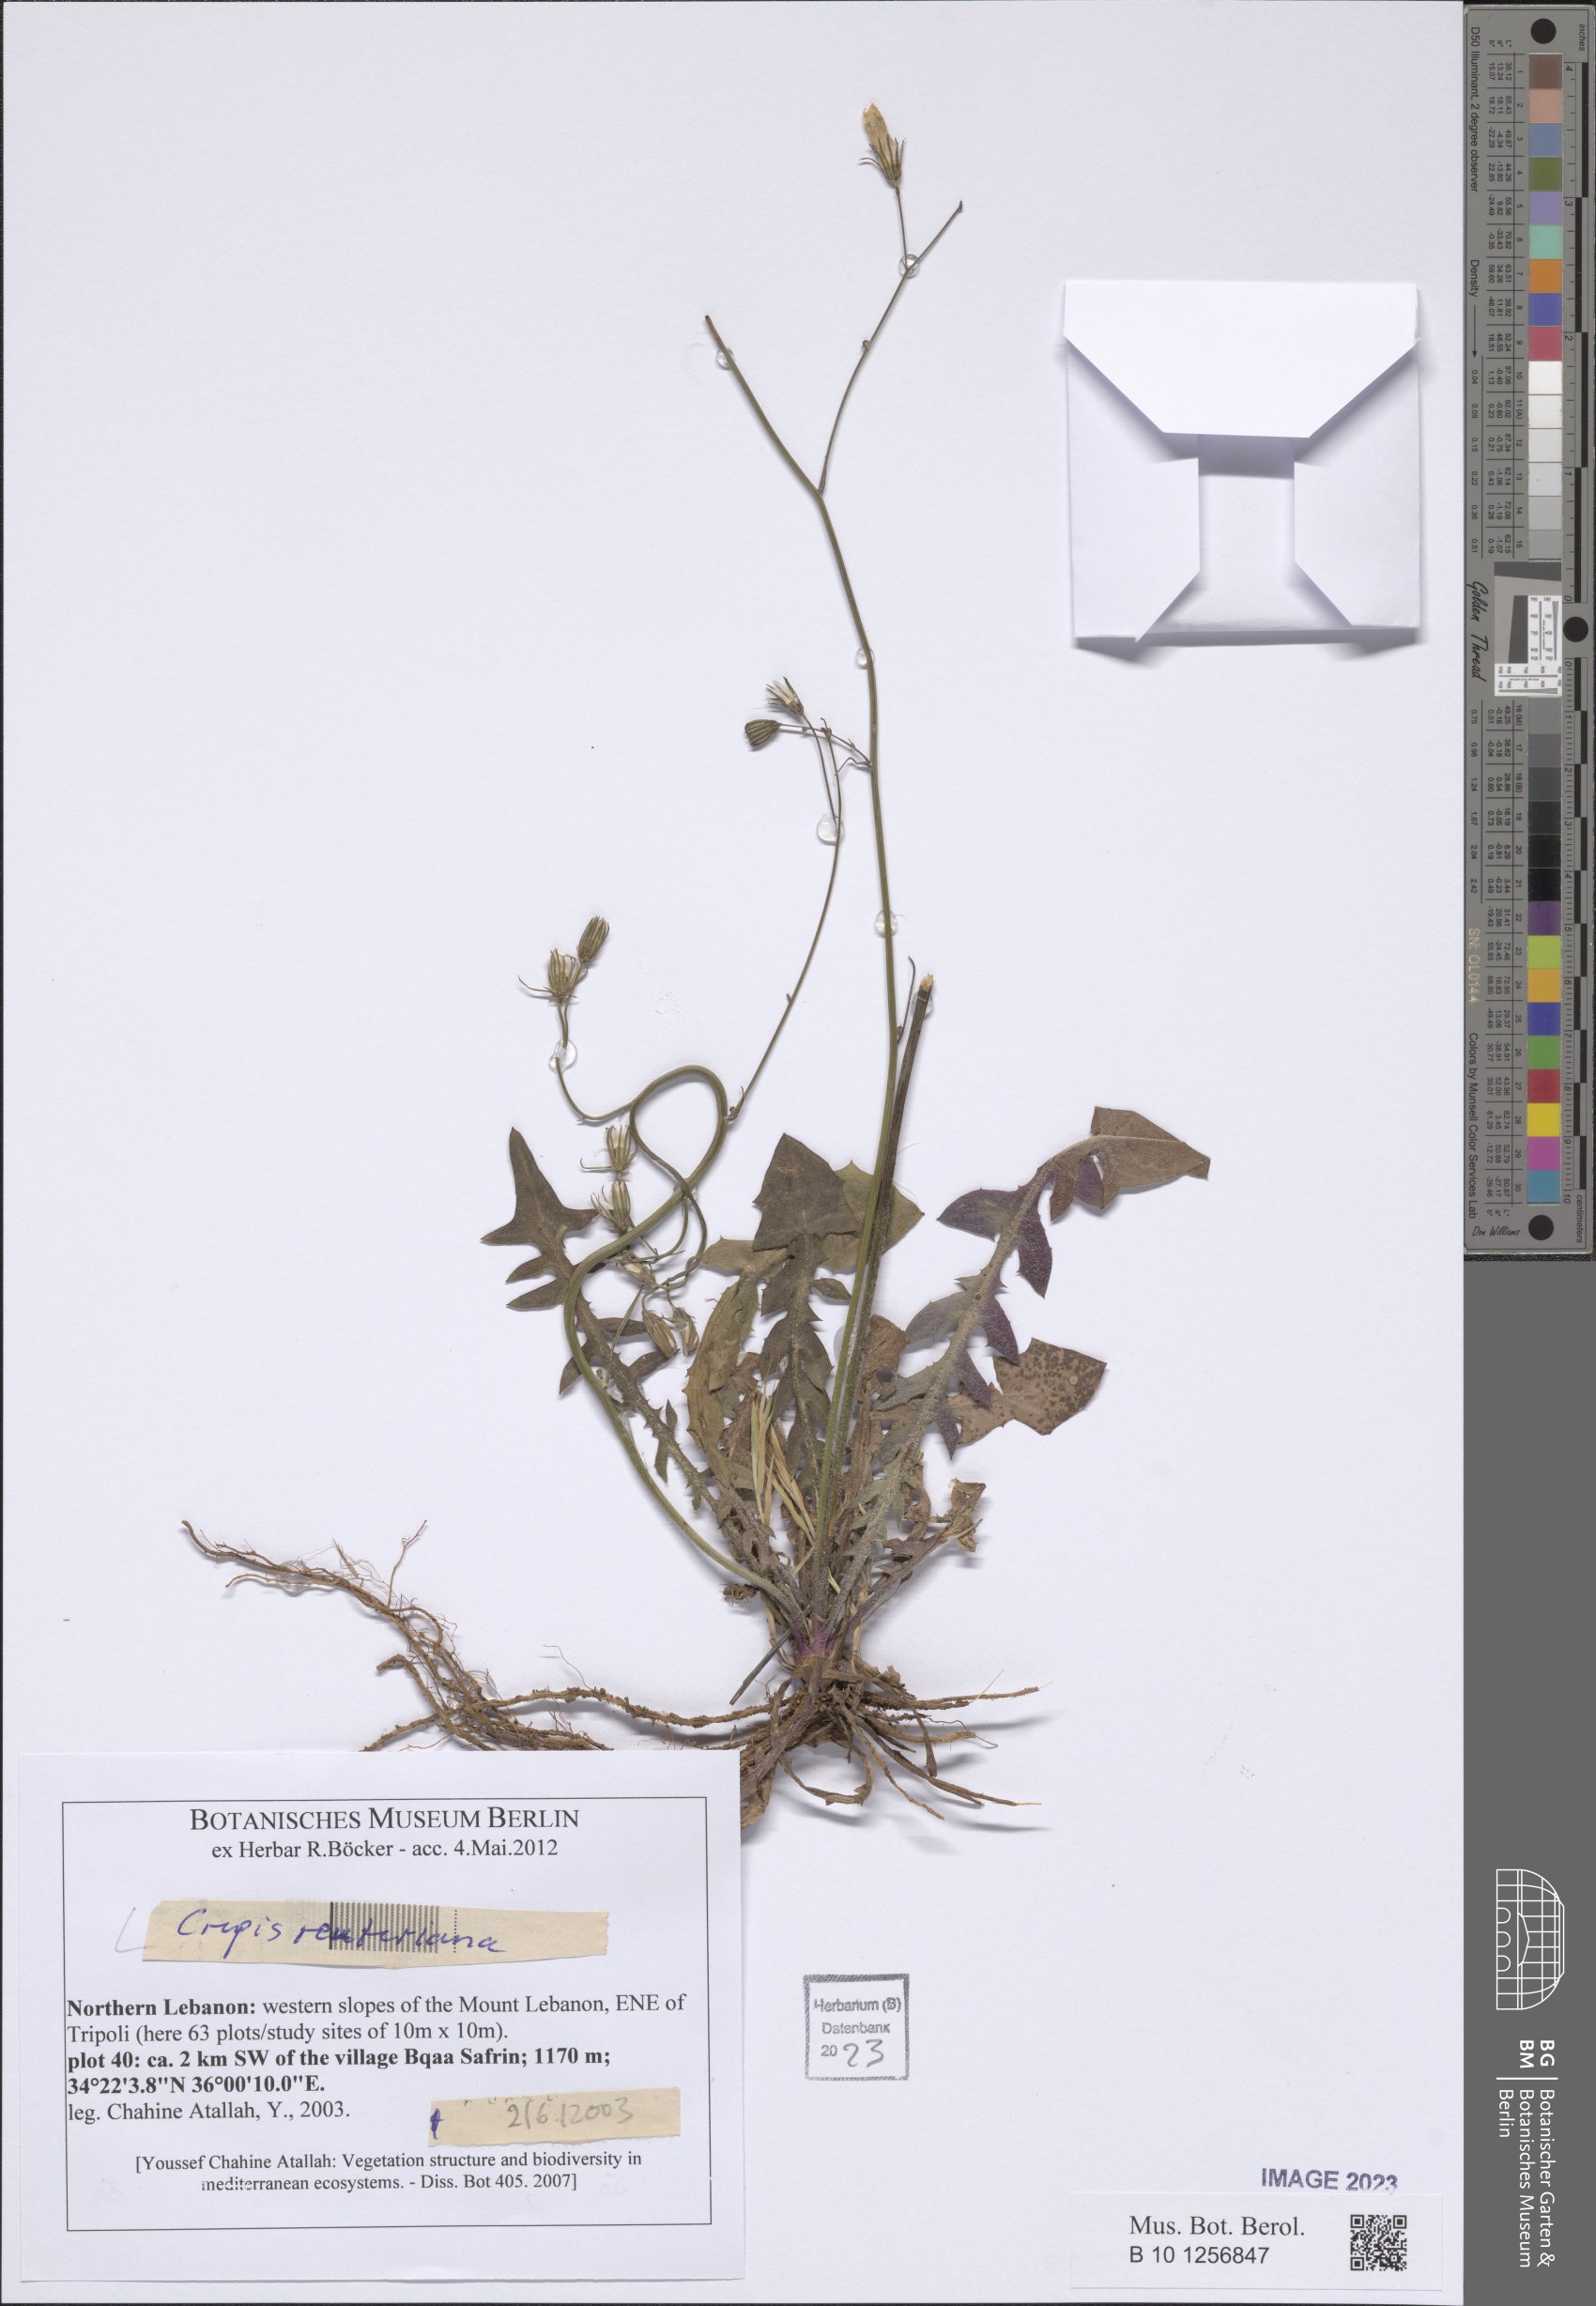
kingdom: Plantae
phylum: Tracheophyta
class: Magnoliopsida
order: Asterales
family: Asteraceae
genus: Crepis
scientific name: Crepis reuteriana
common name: Hawk's-beard
